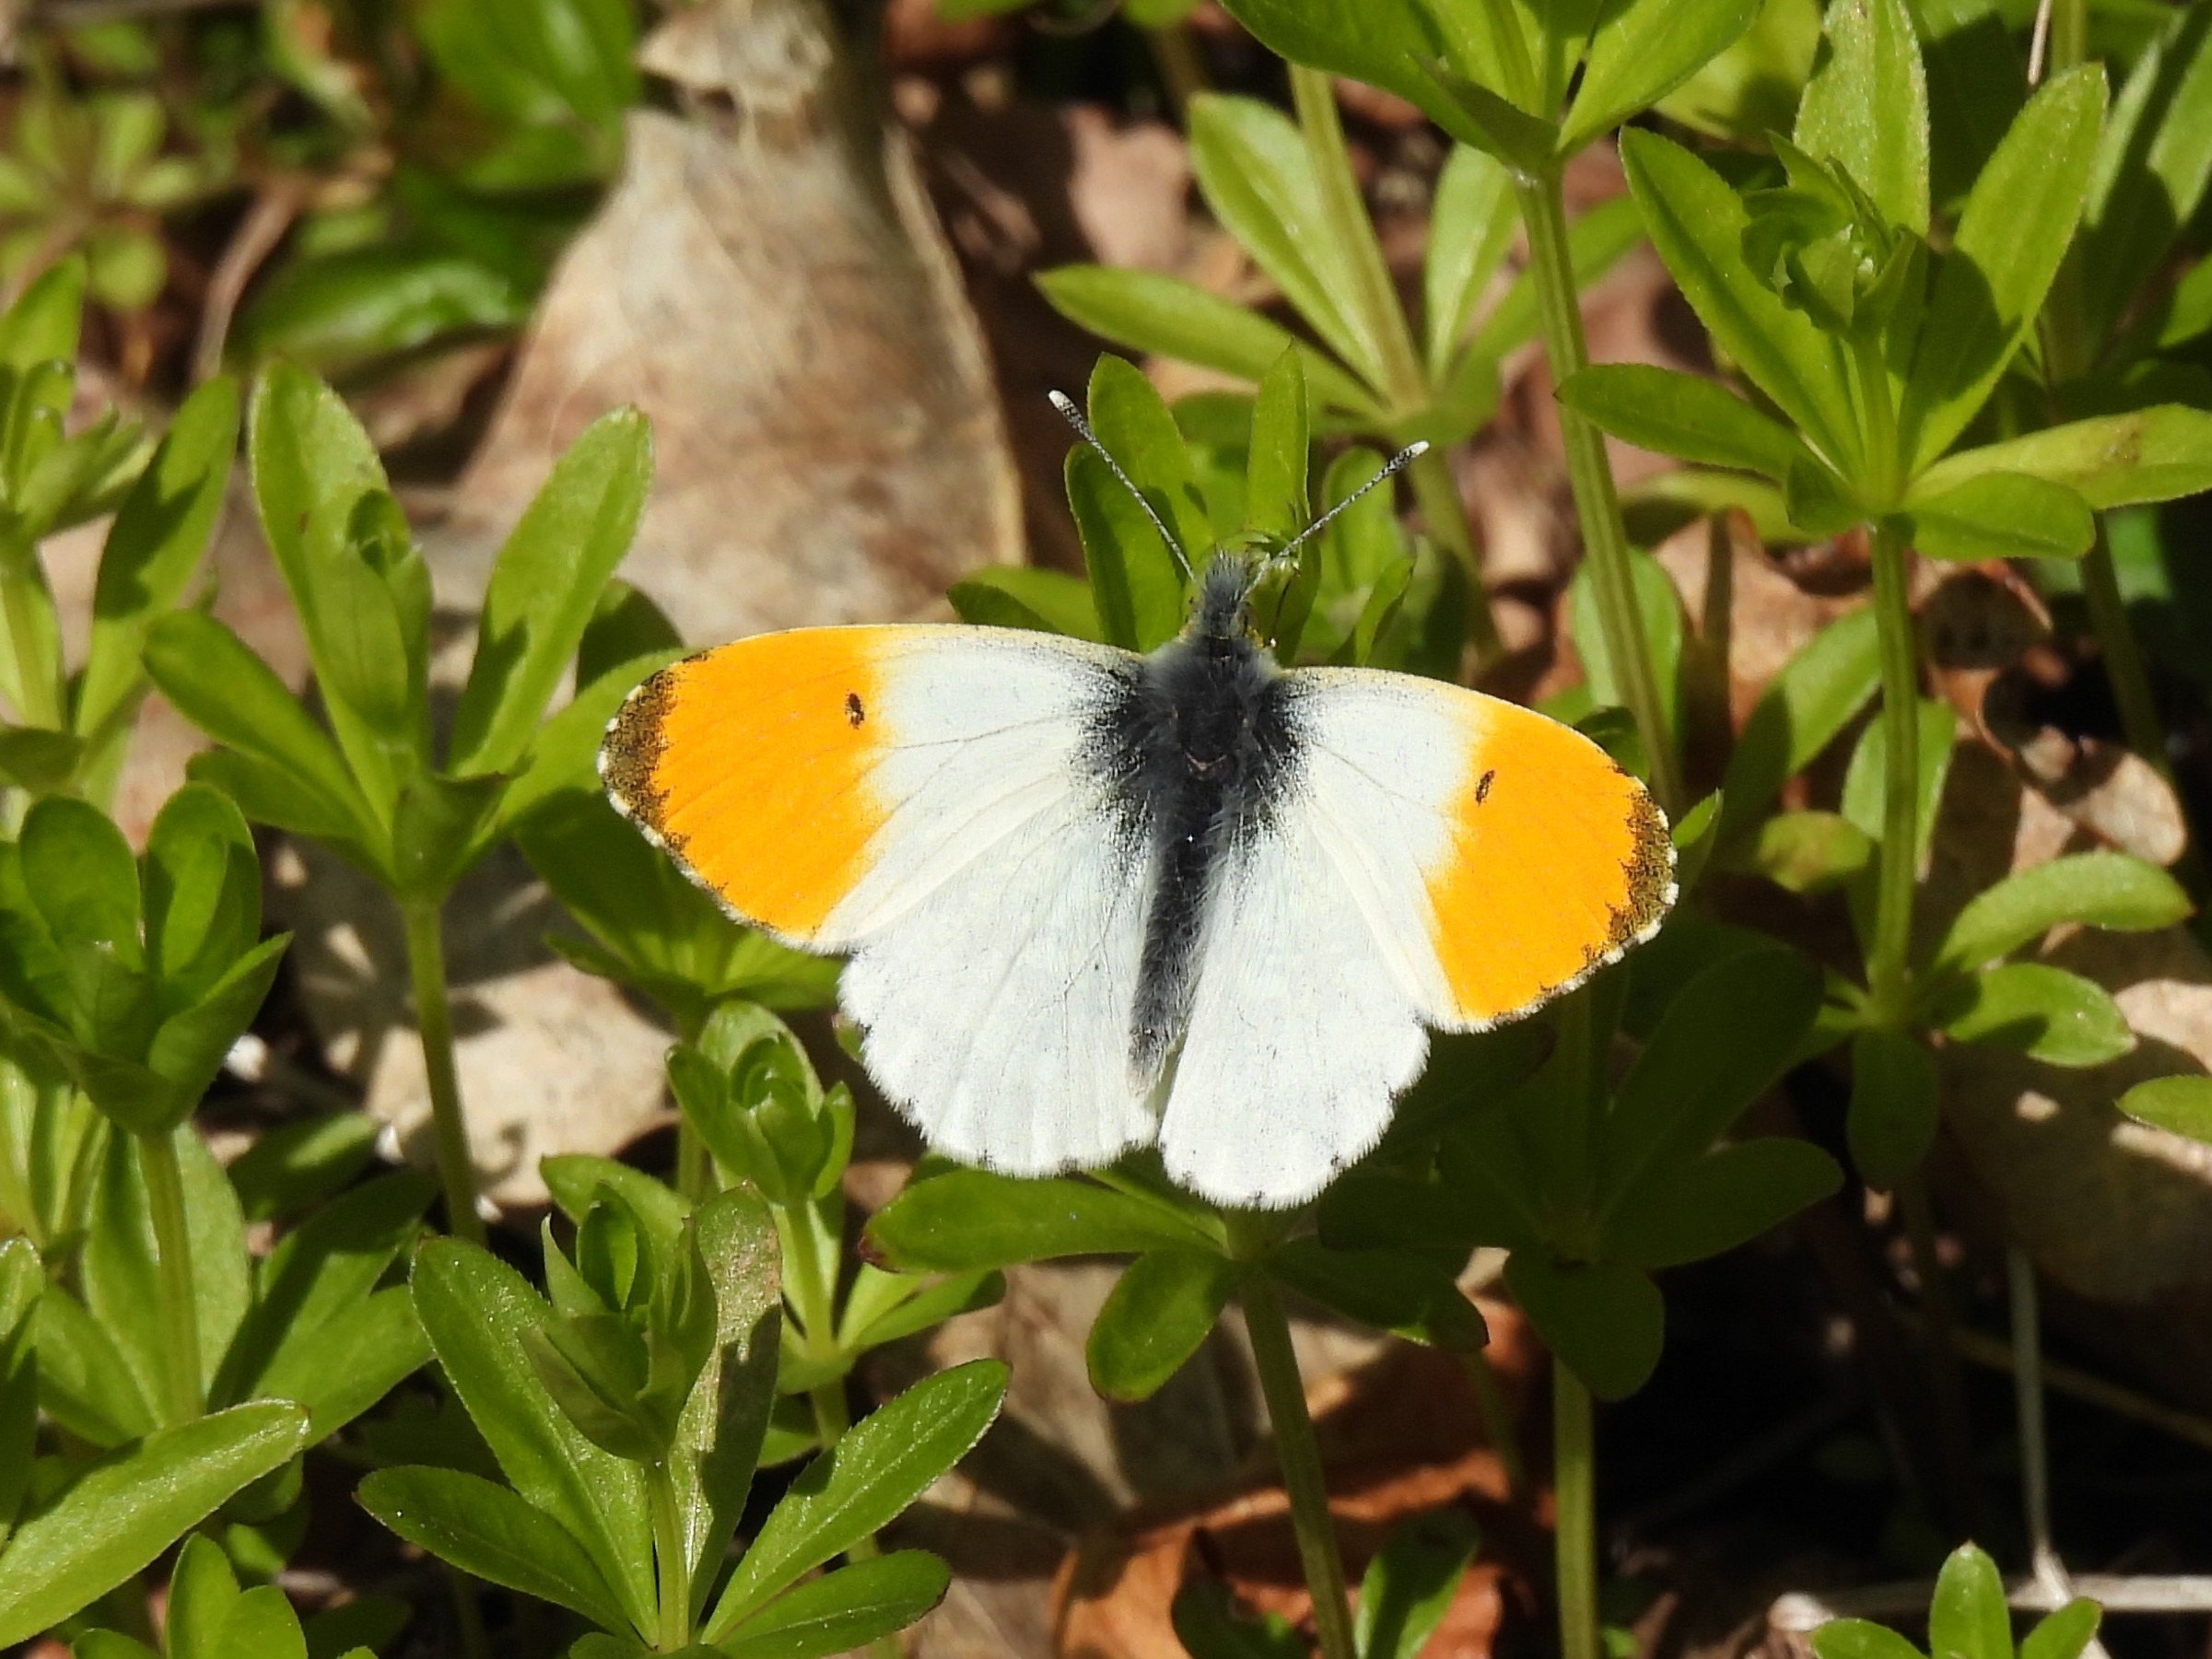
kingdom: Animalia
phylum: Arthropoda
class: Insecta
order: Lepidoptera
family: Pieridae
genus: Anthocharis
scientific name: Anthocharis cardamines
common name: Aurora
